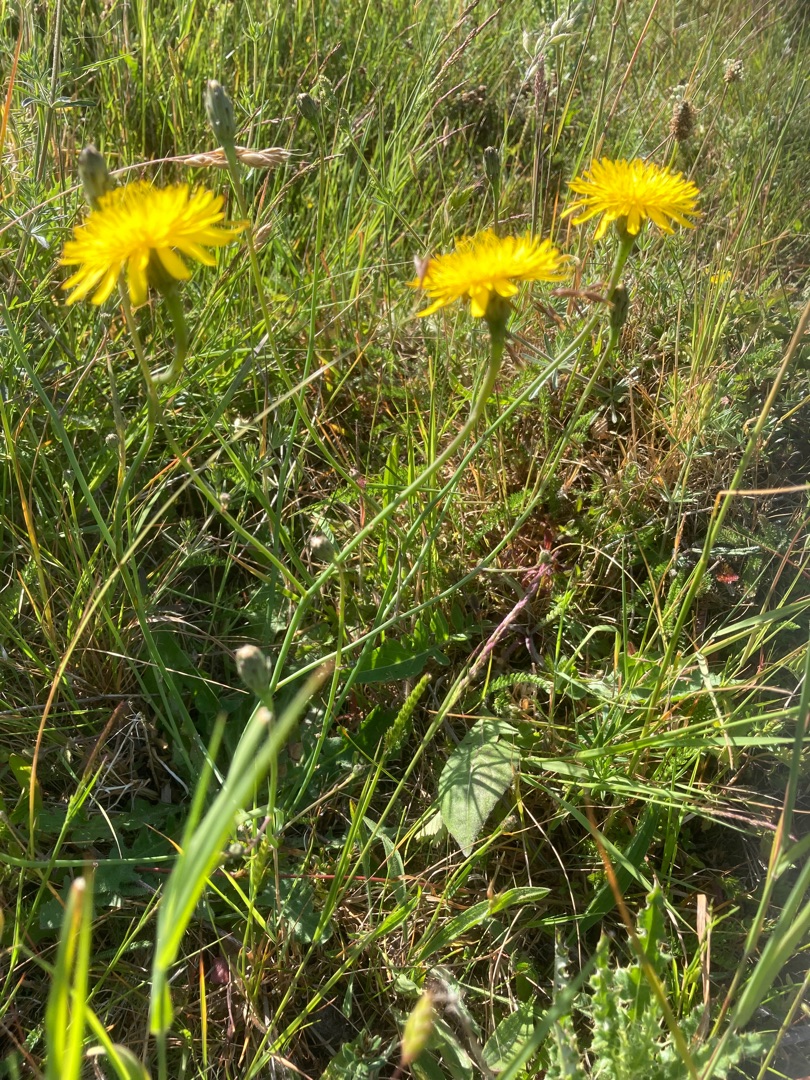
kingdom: Plantae
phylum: Tracheophyta
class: Magnoliopsida
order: Asterales
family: Asteraceae
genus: Hypochaeris
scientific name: Hypochaeris radicata
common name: Almindelig kongepen
